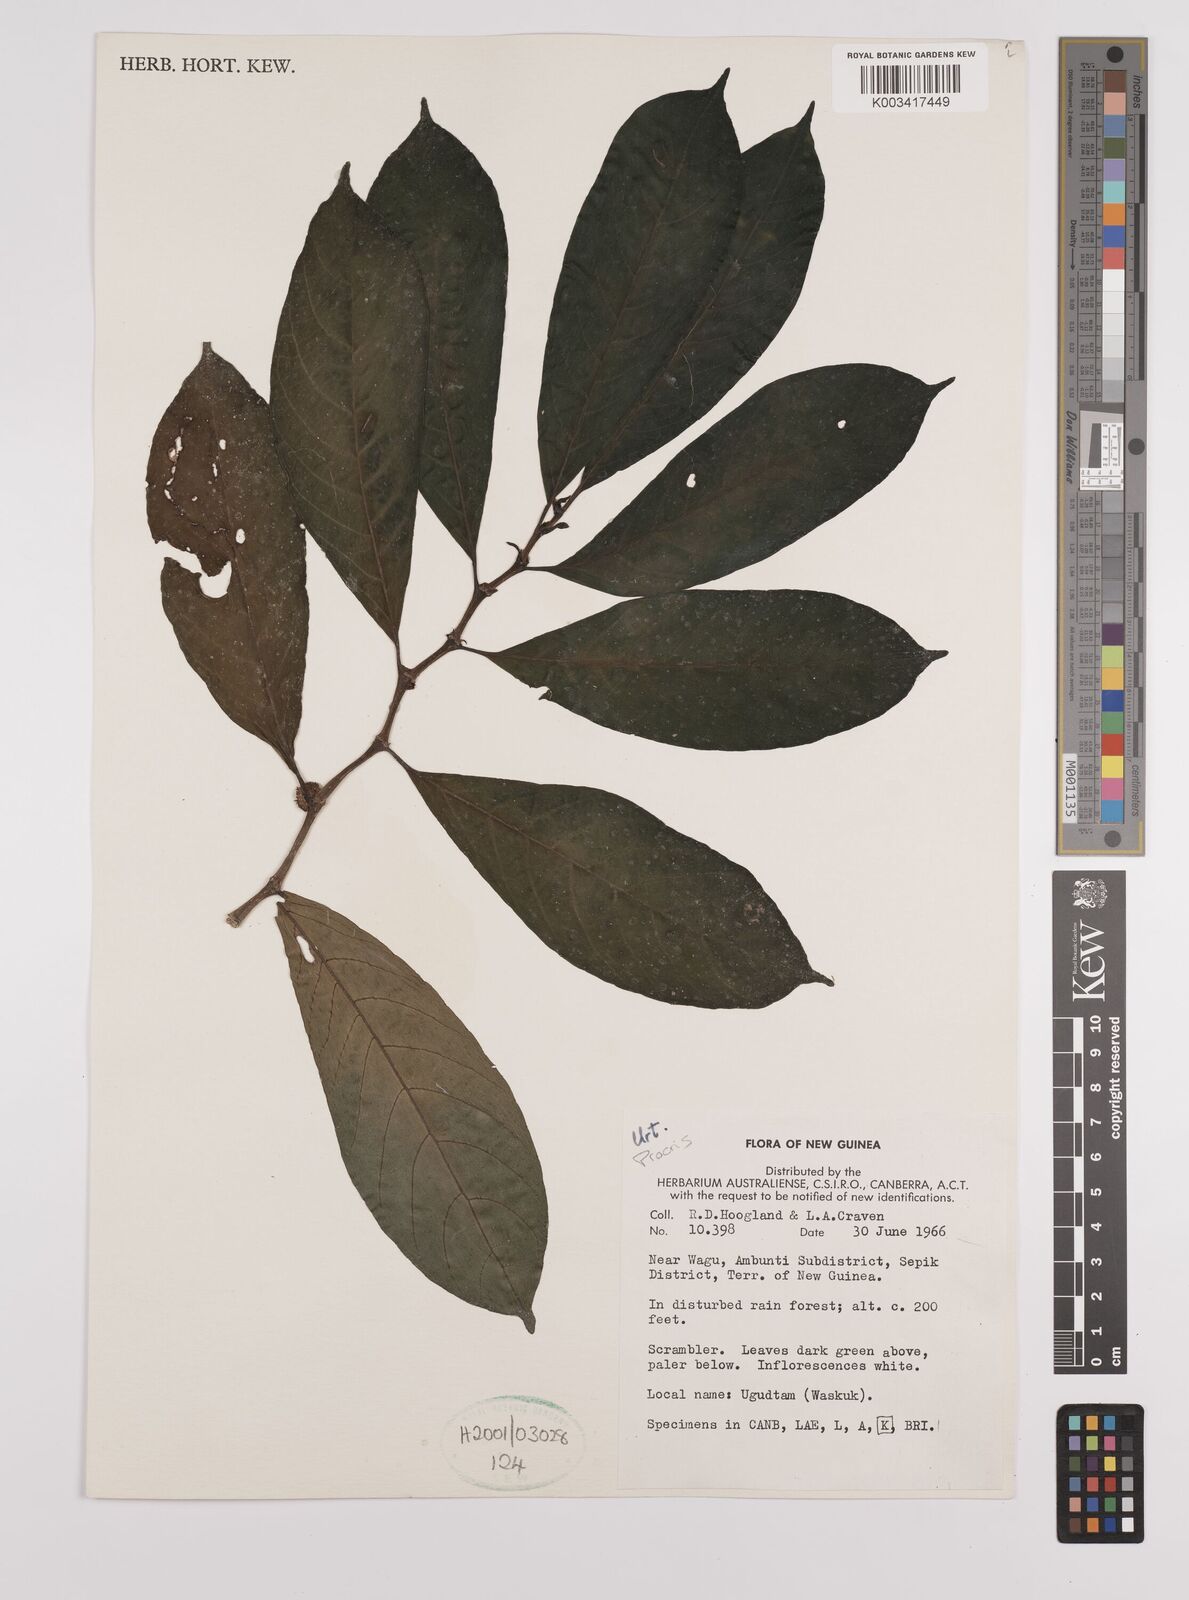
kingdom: Plantae
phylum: Tracheophyta
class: Magnoliopsida
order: Rosales
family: Urticaceae
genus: Procris
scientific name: Procris
